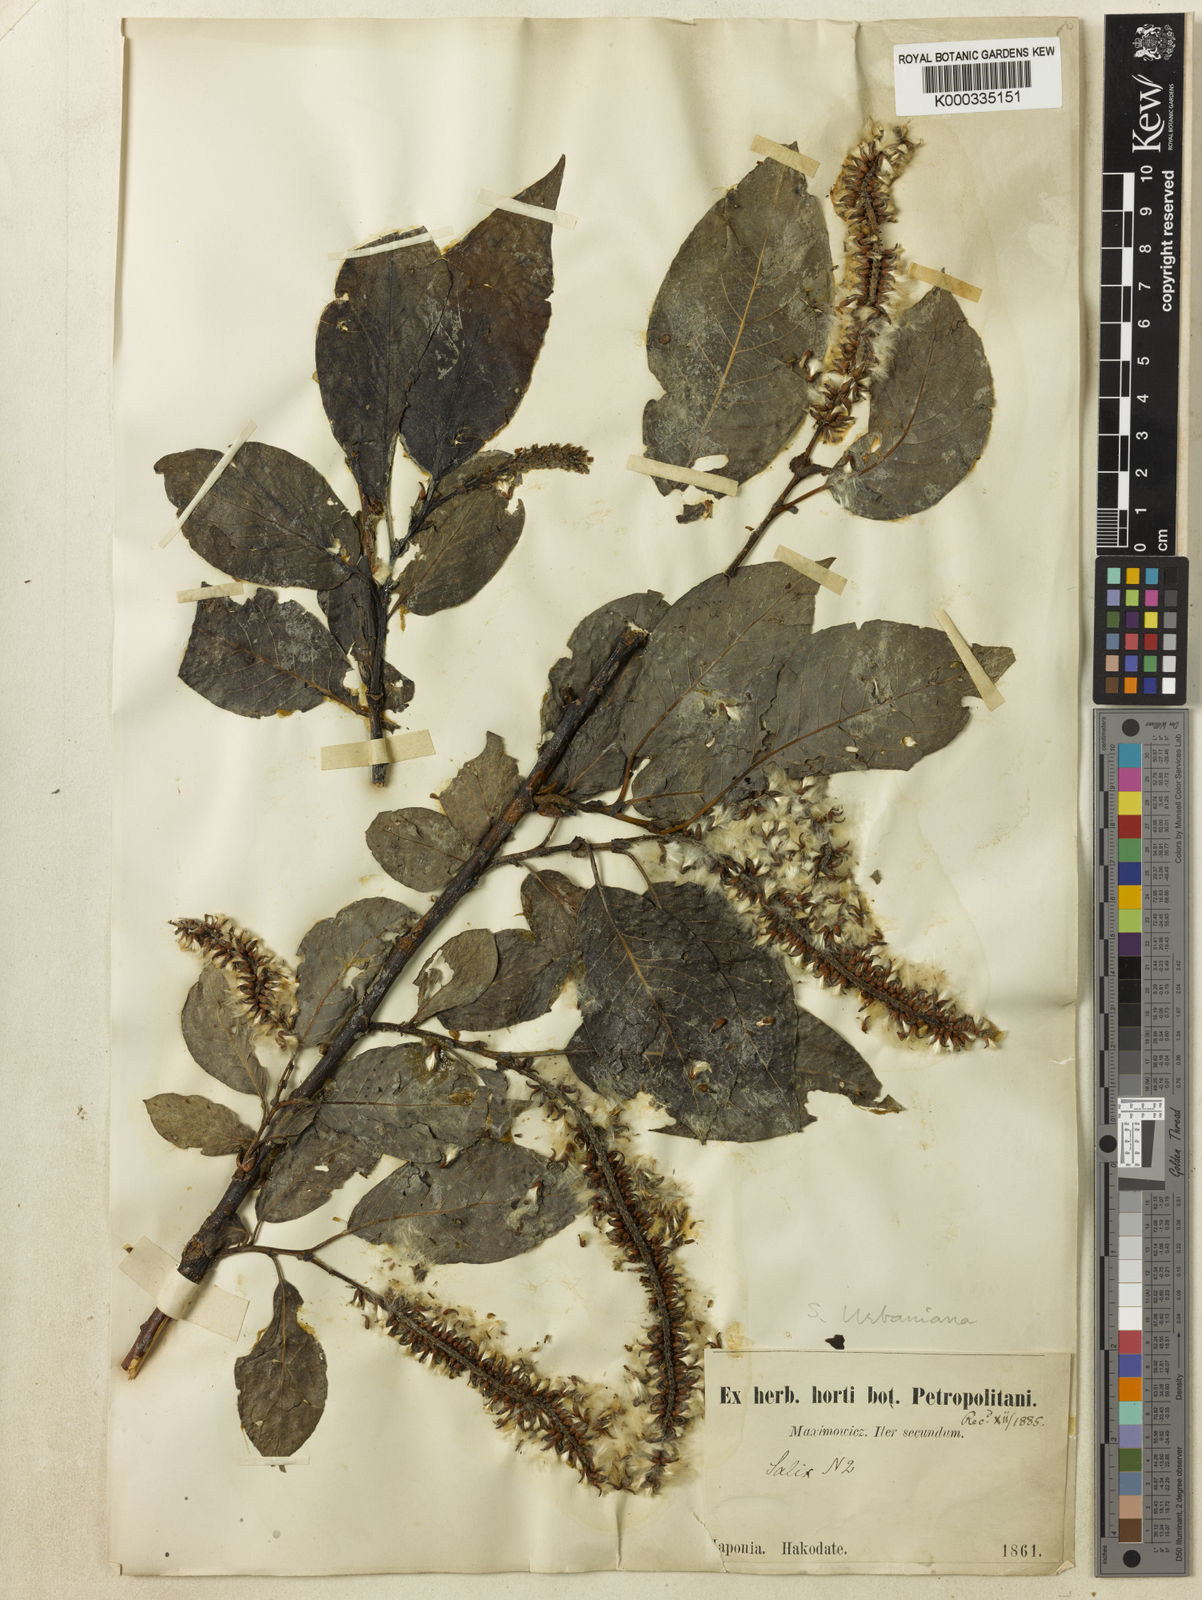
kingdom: Plantae
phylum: Tracheophyta
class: Magnoliopsida
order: Malpighiales
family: Salicaceae
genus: Chosenia
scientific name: Chosenia urbaniana
